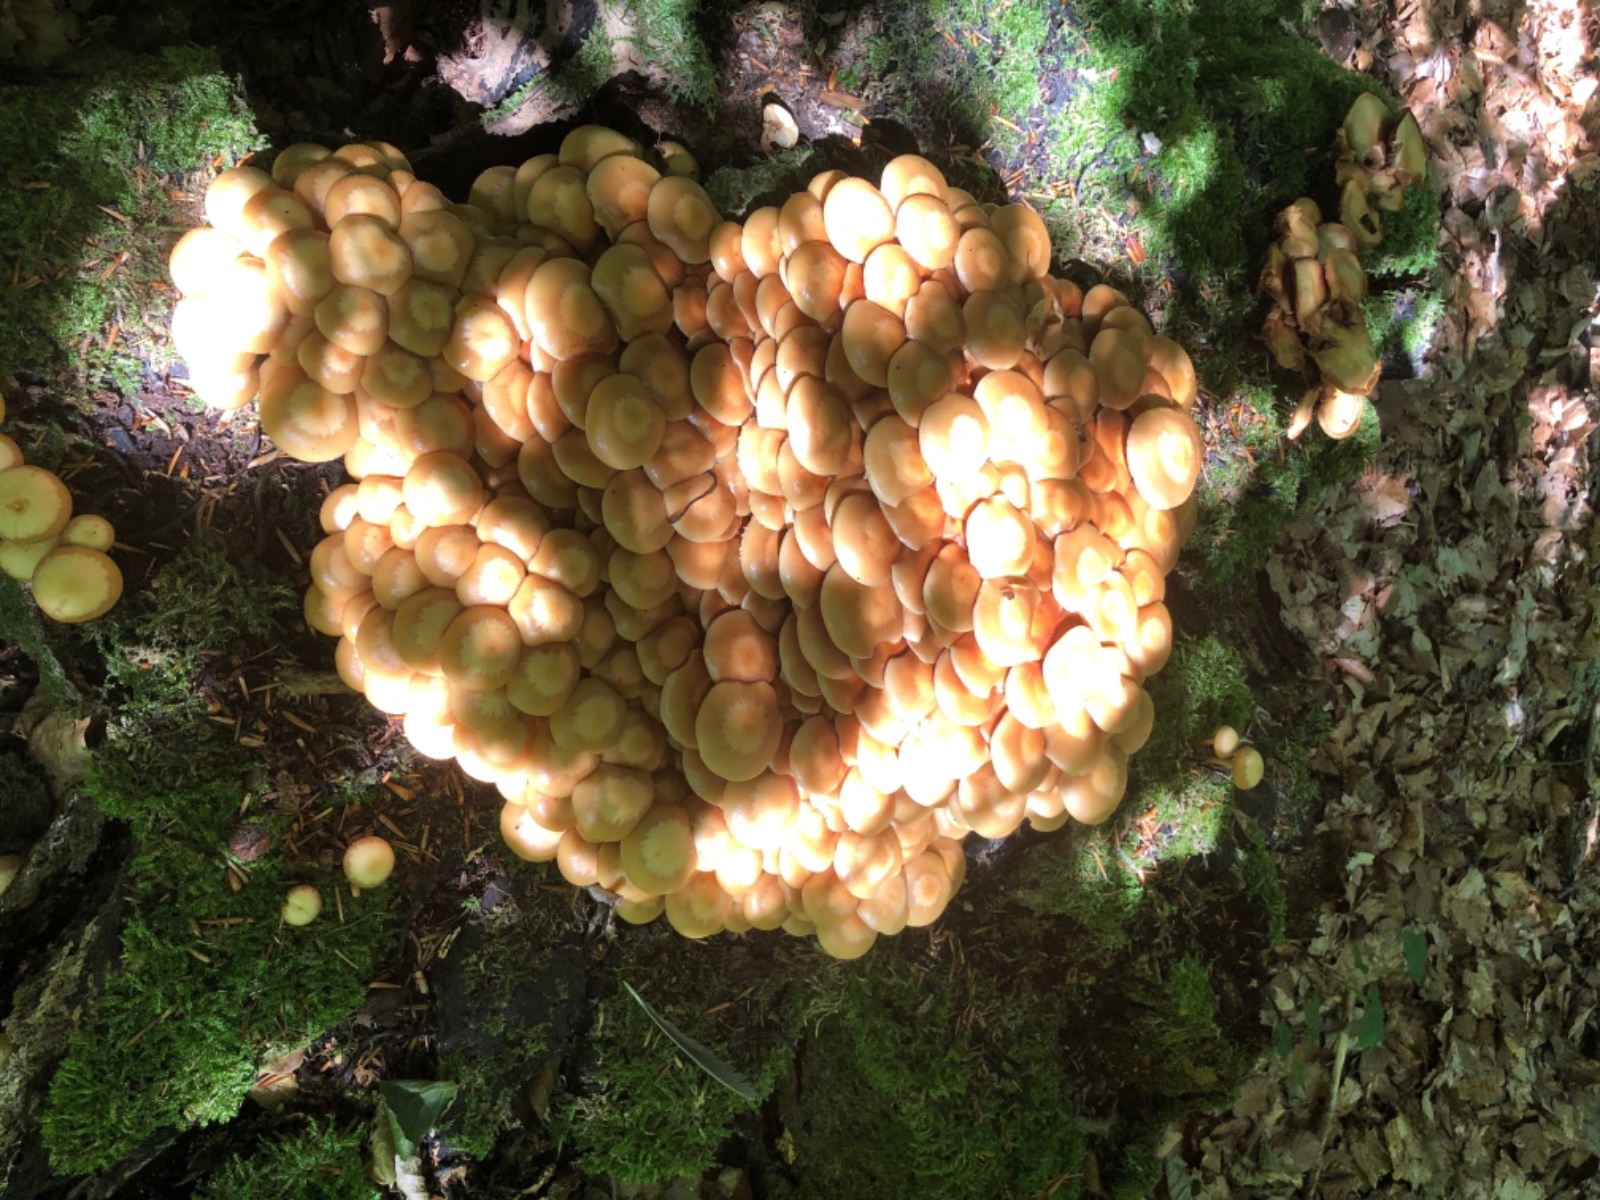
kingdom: Fungi
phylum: Basidiomycota
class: Agaricomycetes
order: Agaricales
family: Strophariaceae
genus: Kuehneromyces
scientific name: Kuehneromyces mutabilis
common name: foranderlig skælhat
